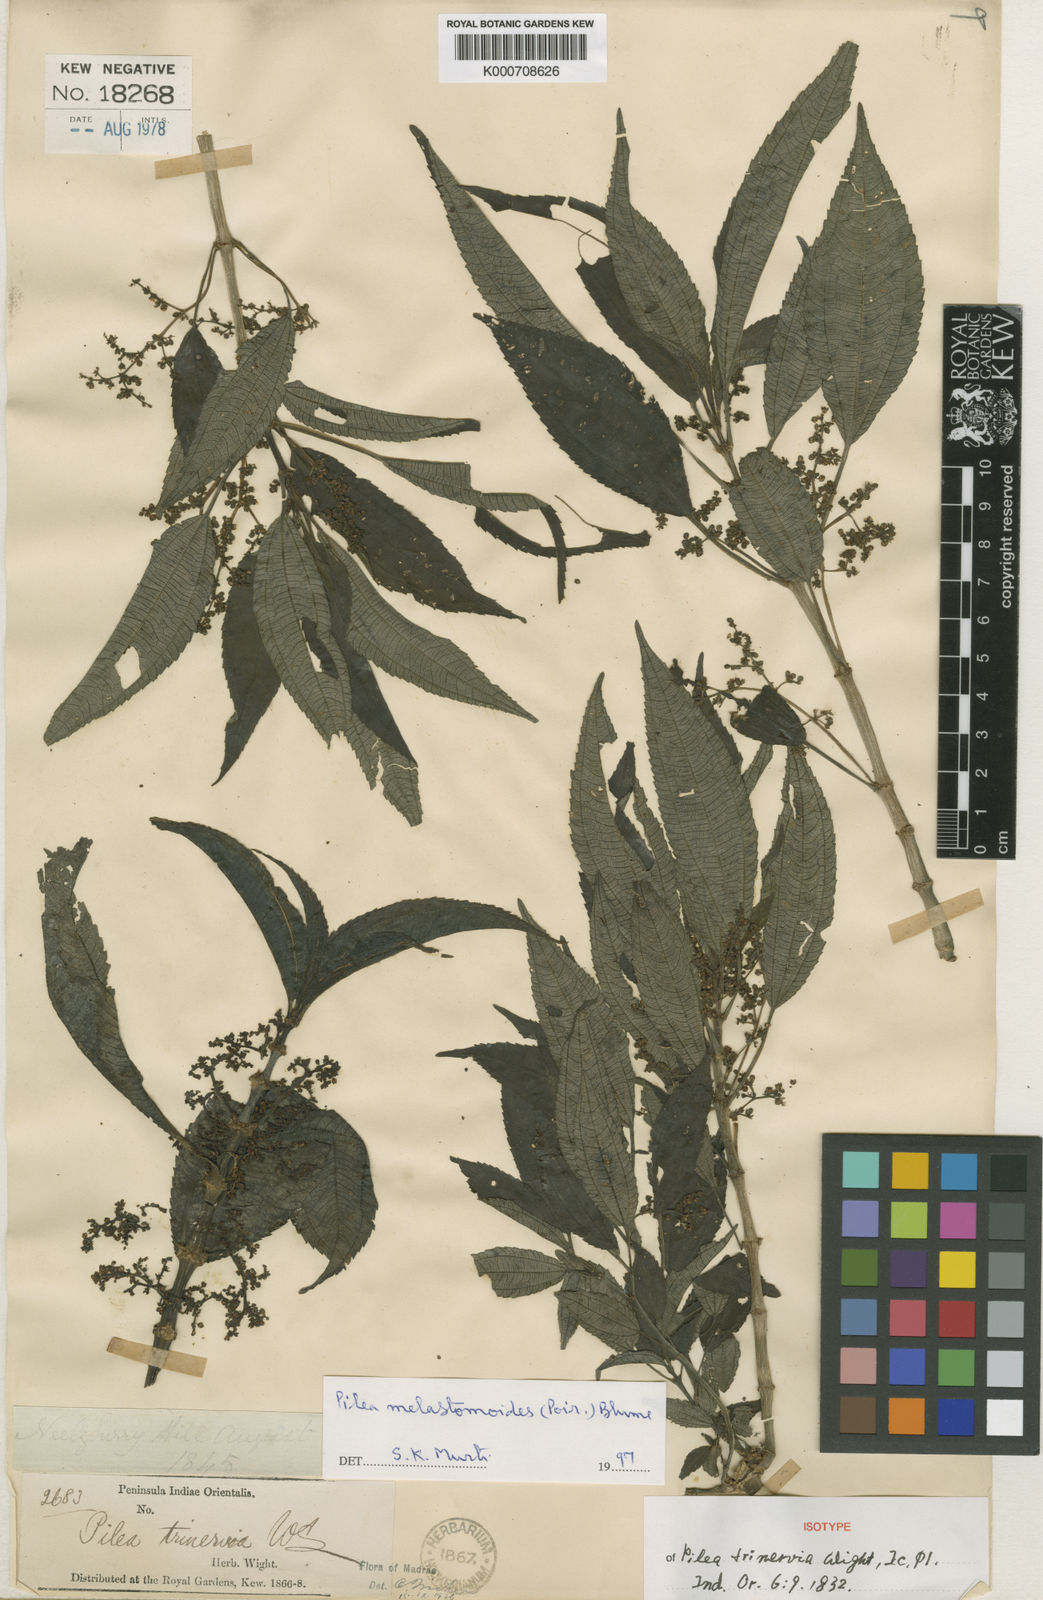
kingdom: Plantae
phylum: Tracheophyta
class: Magnoliopsida
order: Rosales
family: Urticaceae
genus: Pilea
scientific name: Pilea
